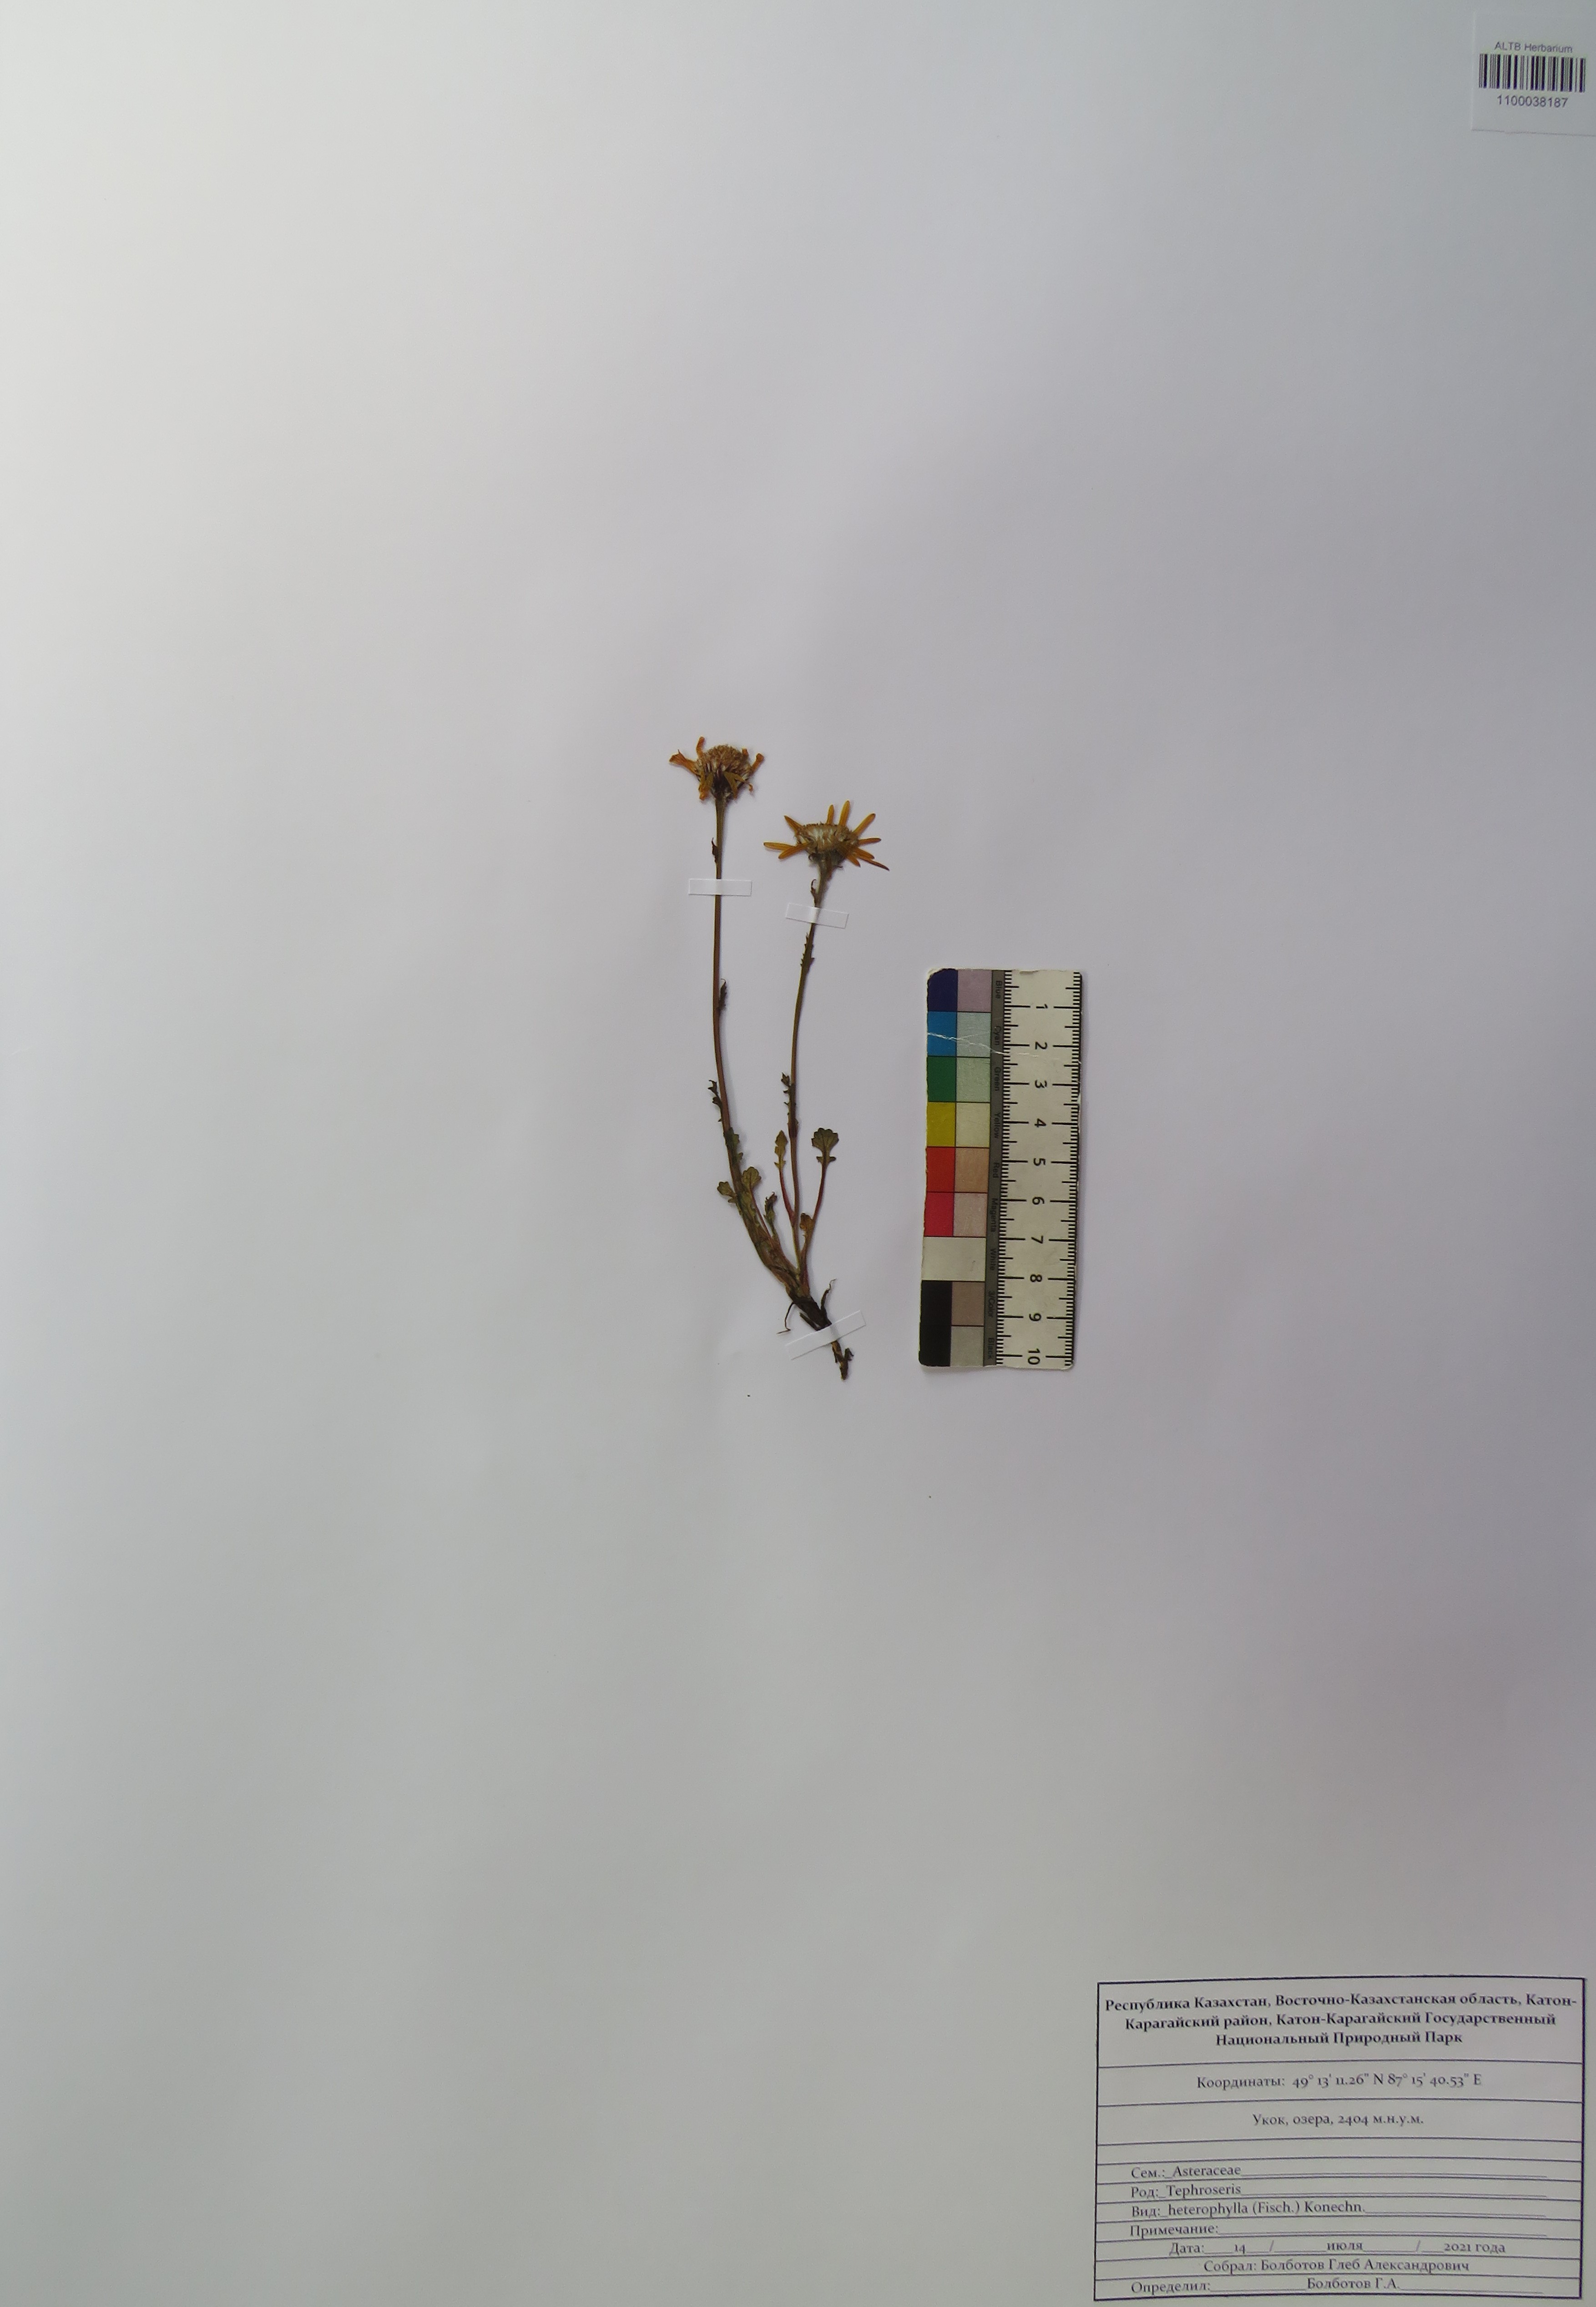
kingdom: Plantae
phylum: Tracheophyta
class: Magnoliopsida
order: Asterales
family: Asteraceae
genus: Packera
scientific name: Packera heterophylla
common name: Arctic butterweed
